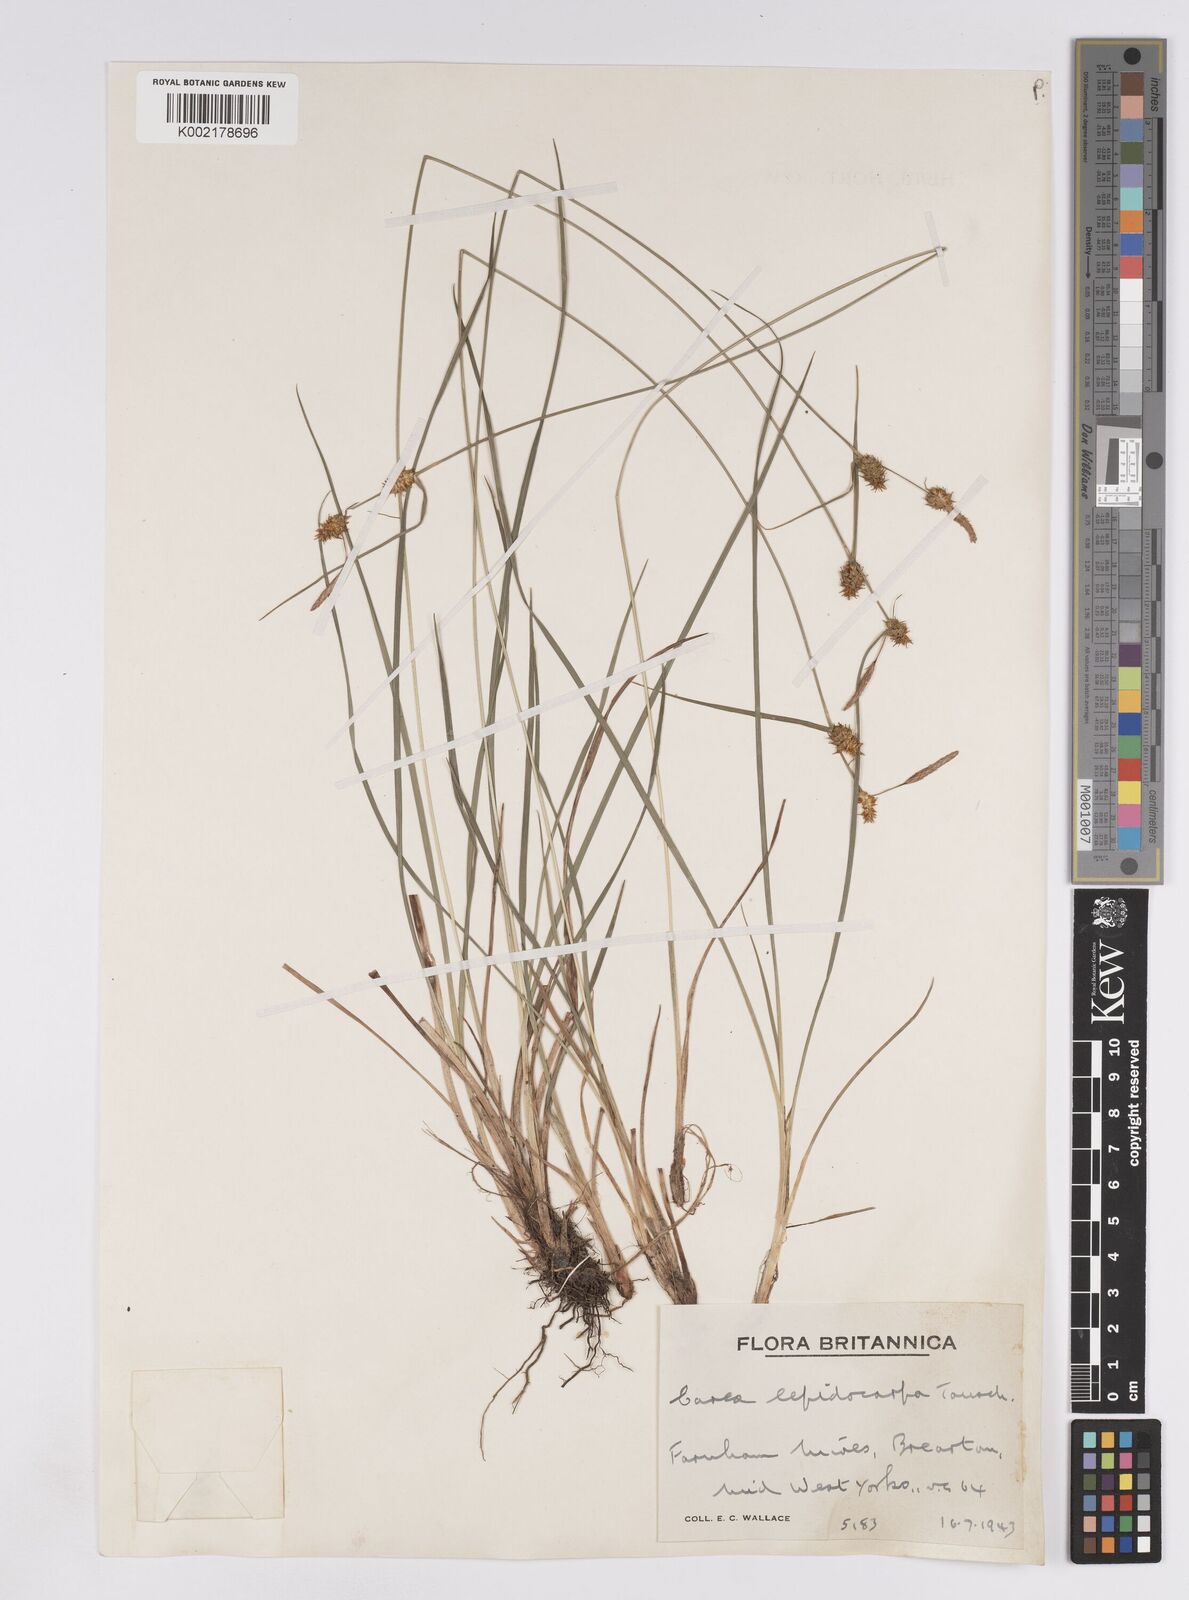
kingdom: Plantae
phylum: Tracheophyta
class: Liliopsida
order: Poales
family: Cyperaceae
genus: Carex
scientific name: Carex lepidocarpa
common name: Long-stalked yellow-sedge
